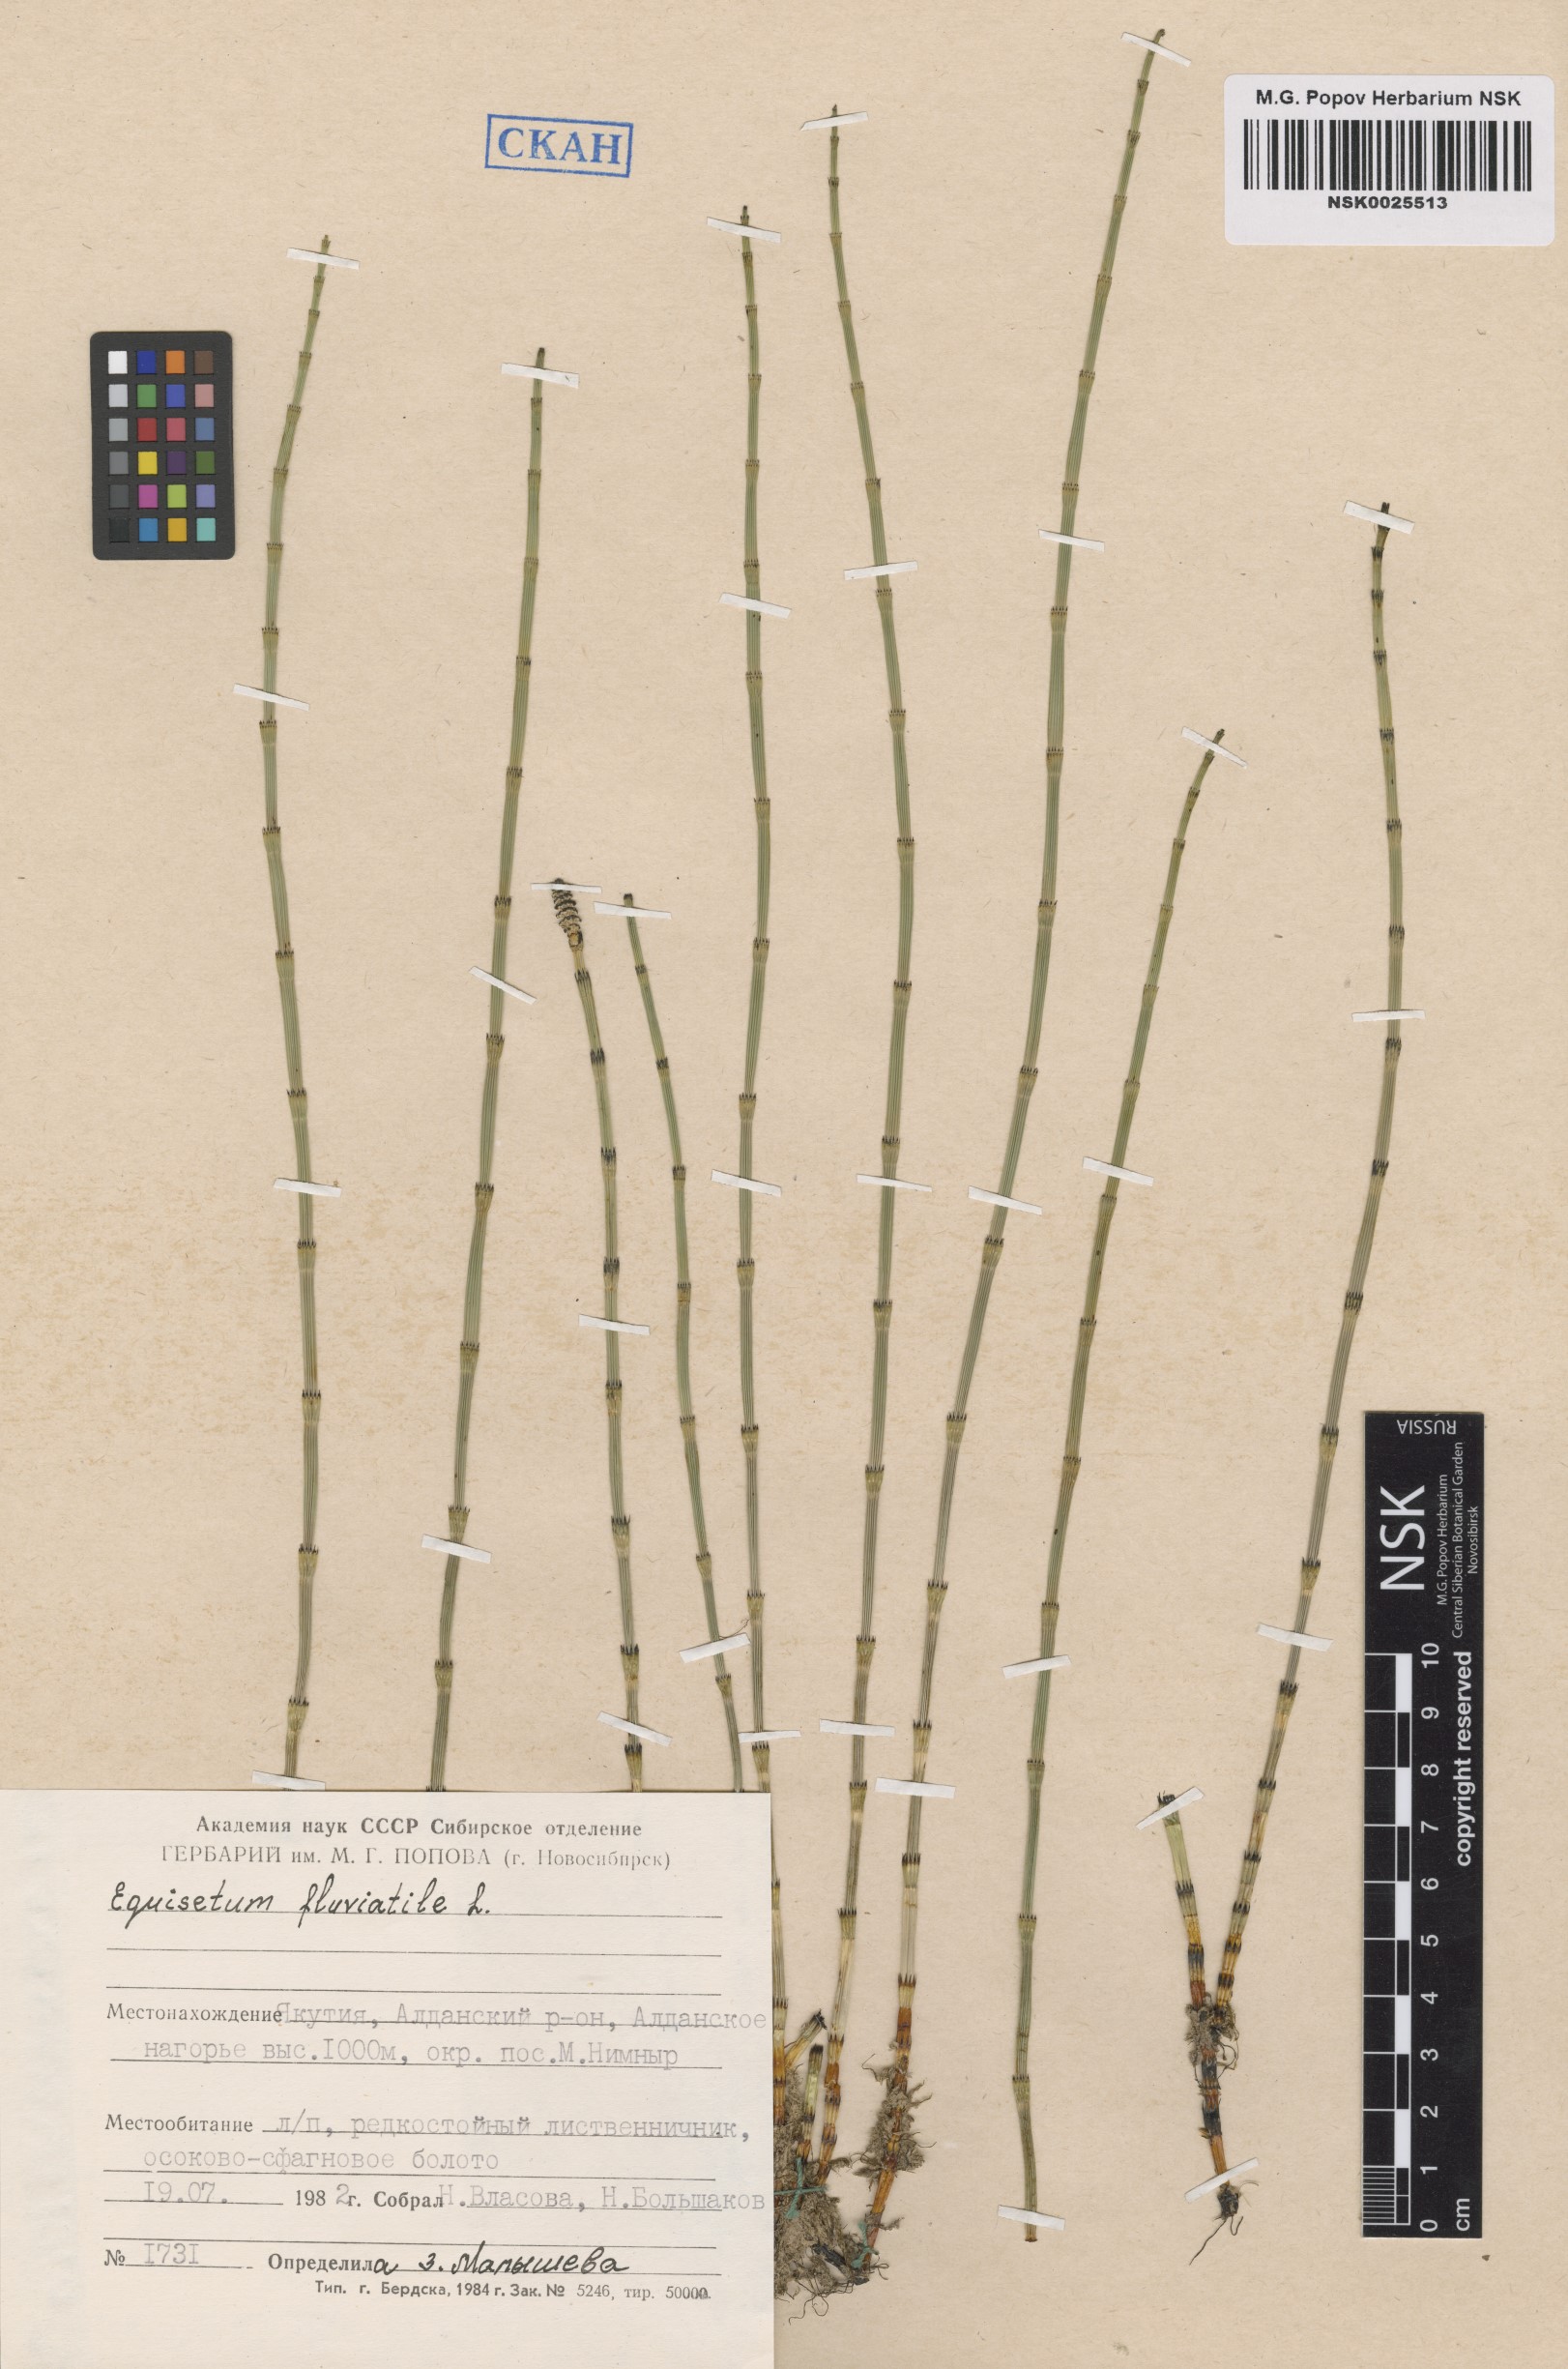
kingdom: Plantae
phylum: Tracheophyta
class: Polypodiopsida
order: Equisetales
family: Equisetaceae
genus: Equisetum
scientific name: Equisetum fluviatile
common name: Water horsetail
